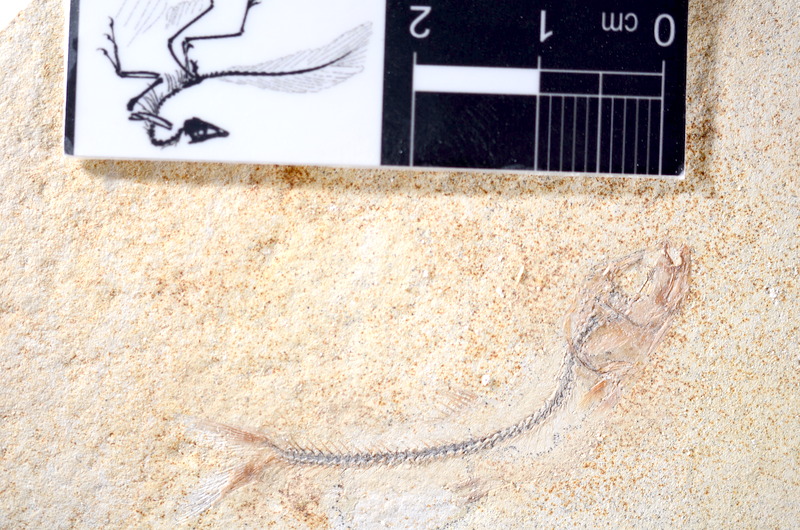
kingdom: Animalia
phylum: Chordata
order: Salmoniformes
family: Orthogonikleithridae
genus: Orthogonikleithrus
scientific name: Orthogonikleithrus hoelli
